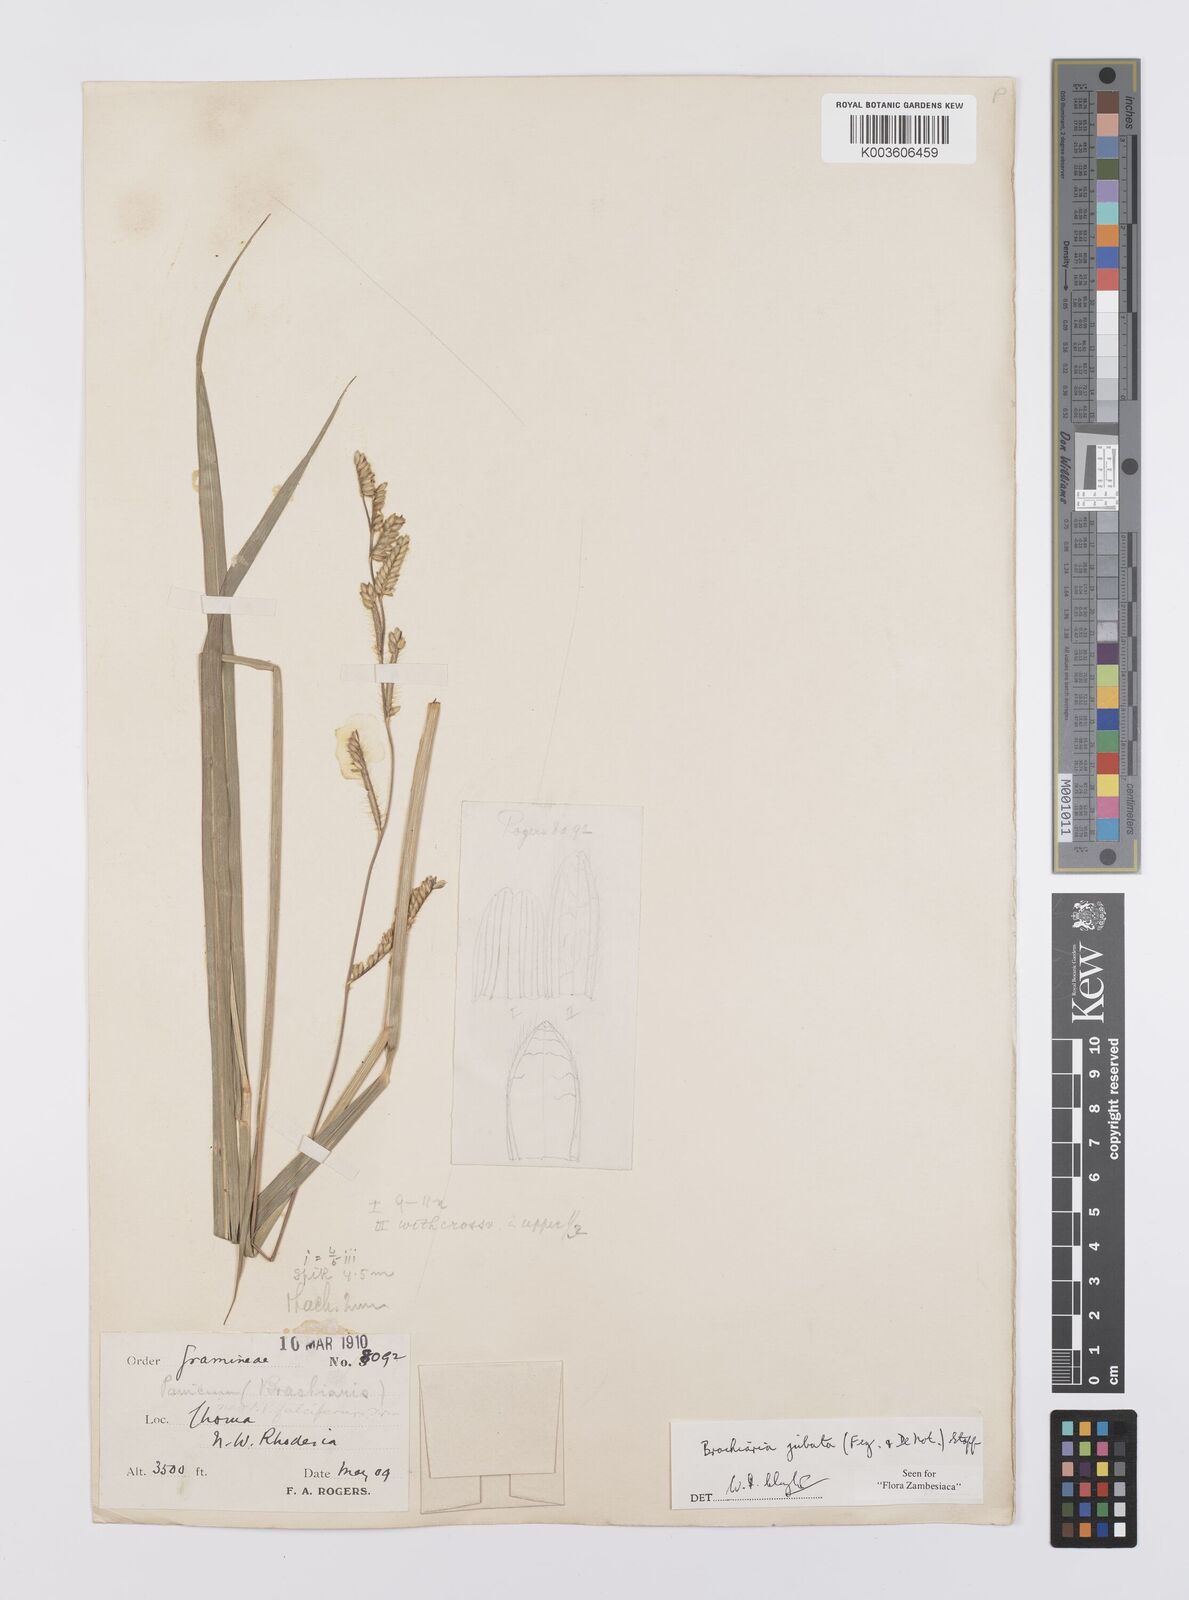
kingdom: Plantae
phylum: Tracheophyta
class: Liliopsida
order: Poales
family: Poaceae
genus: Urochloa
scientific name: Urochloa jubata
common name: Buffalograss
